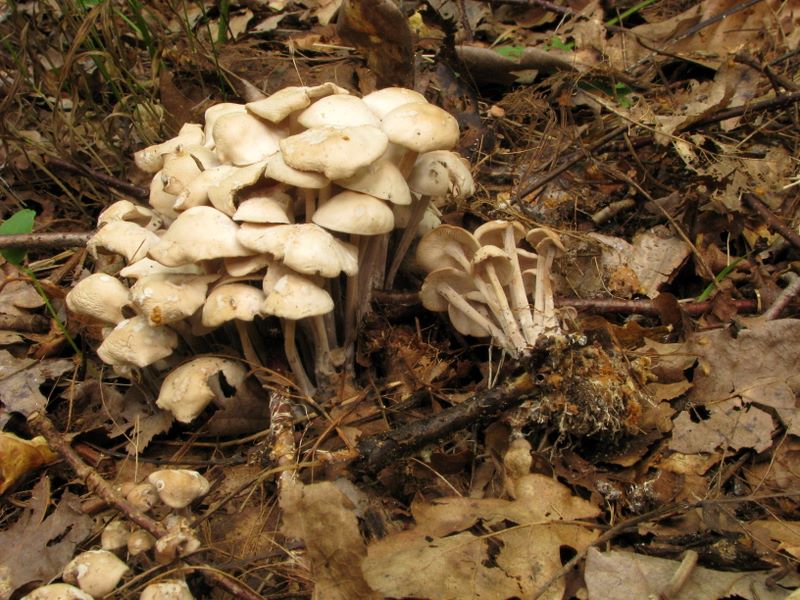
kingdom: Fungi
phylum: Basidiomycota
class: Agaricomycetes
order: Agaricales
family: Omphalotaceae
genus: Collybiopsis
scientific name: Collybiopsis confluens
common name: knippe-fladhat
